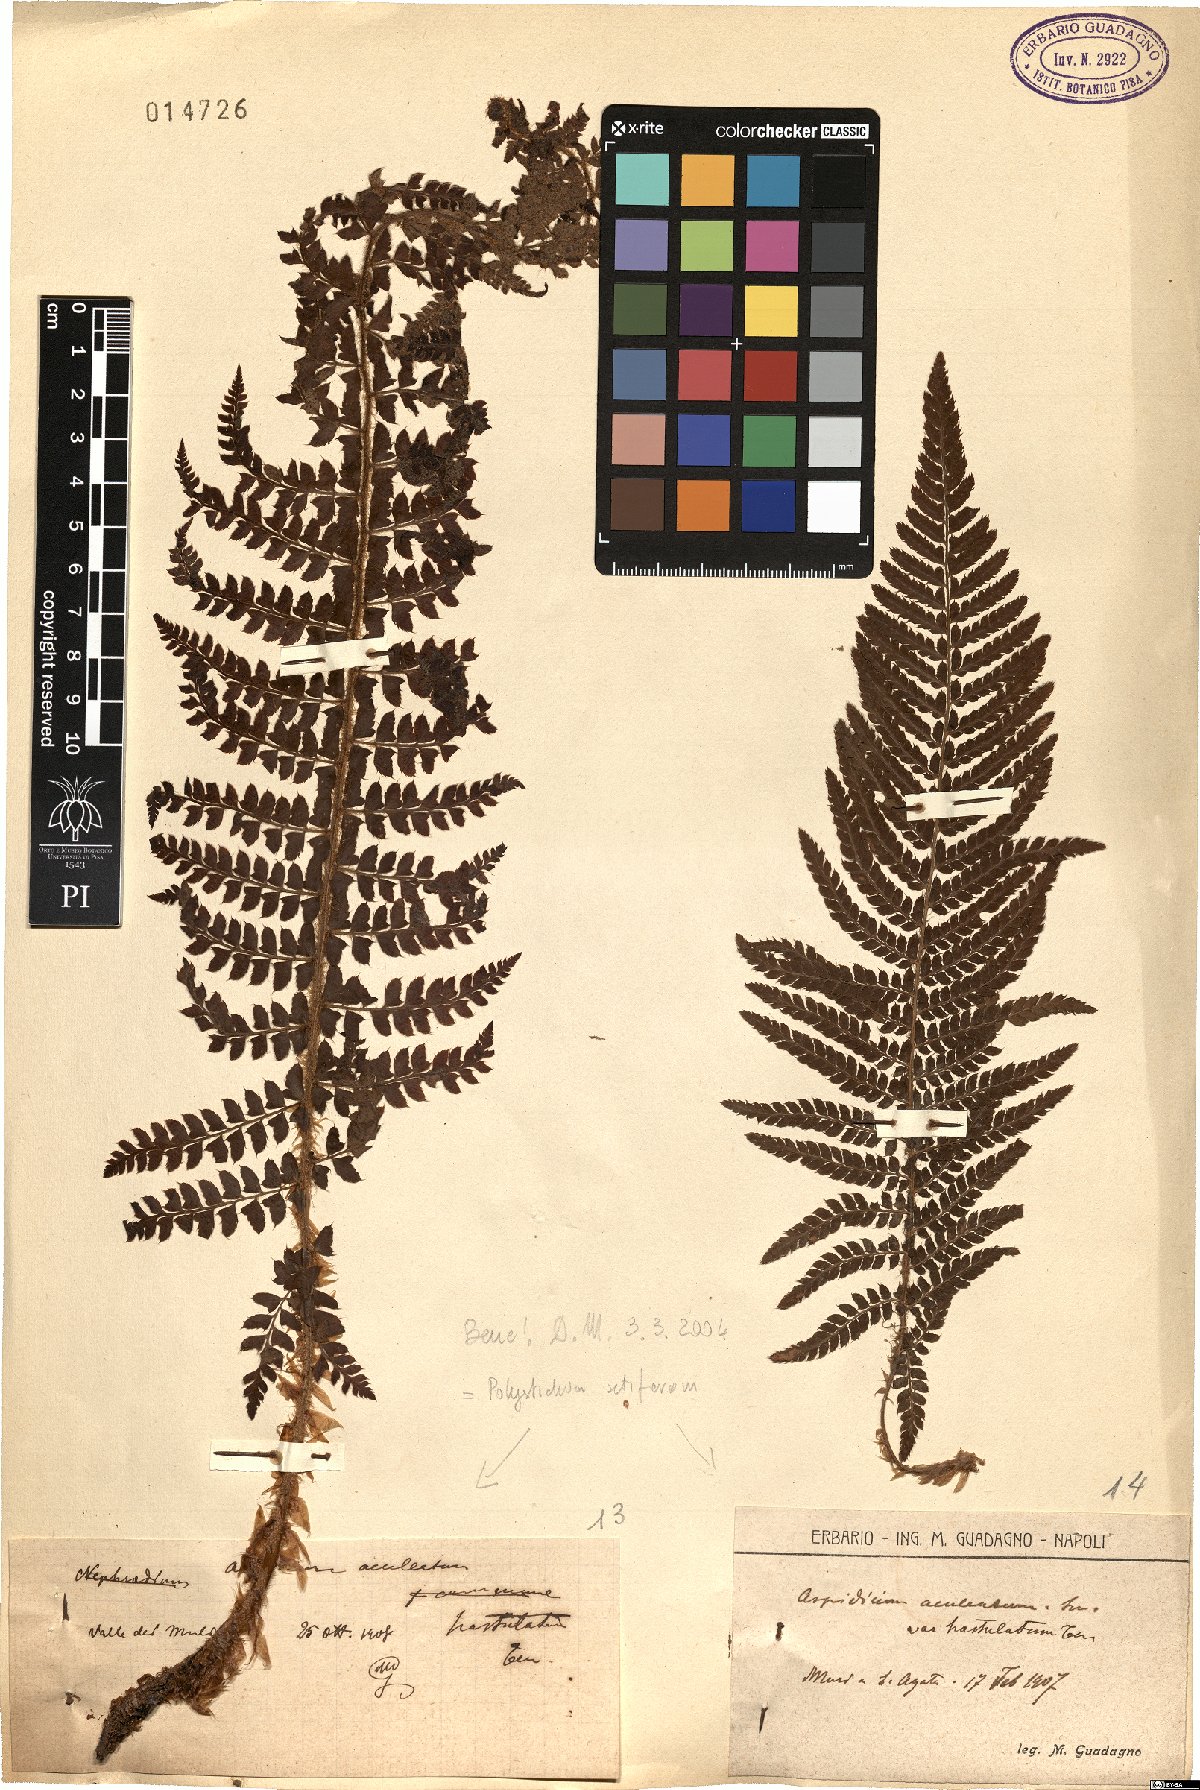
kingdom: Plantae
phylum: Tracheophyta
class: Polypodiopsida
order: Polypodiales
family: Dryopteridaceae
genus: Polystichum
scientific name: Polystichum setiferum
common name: Soft shield-fern
